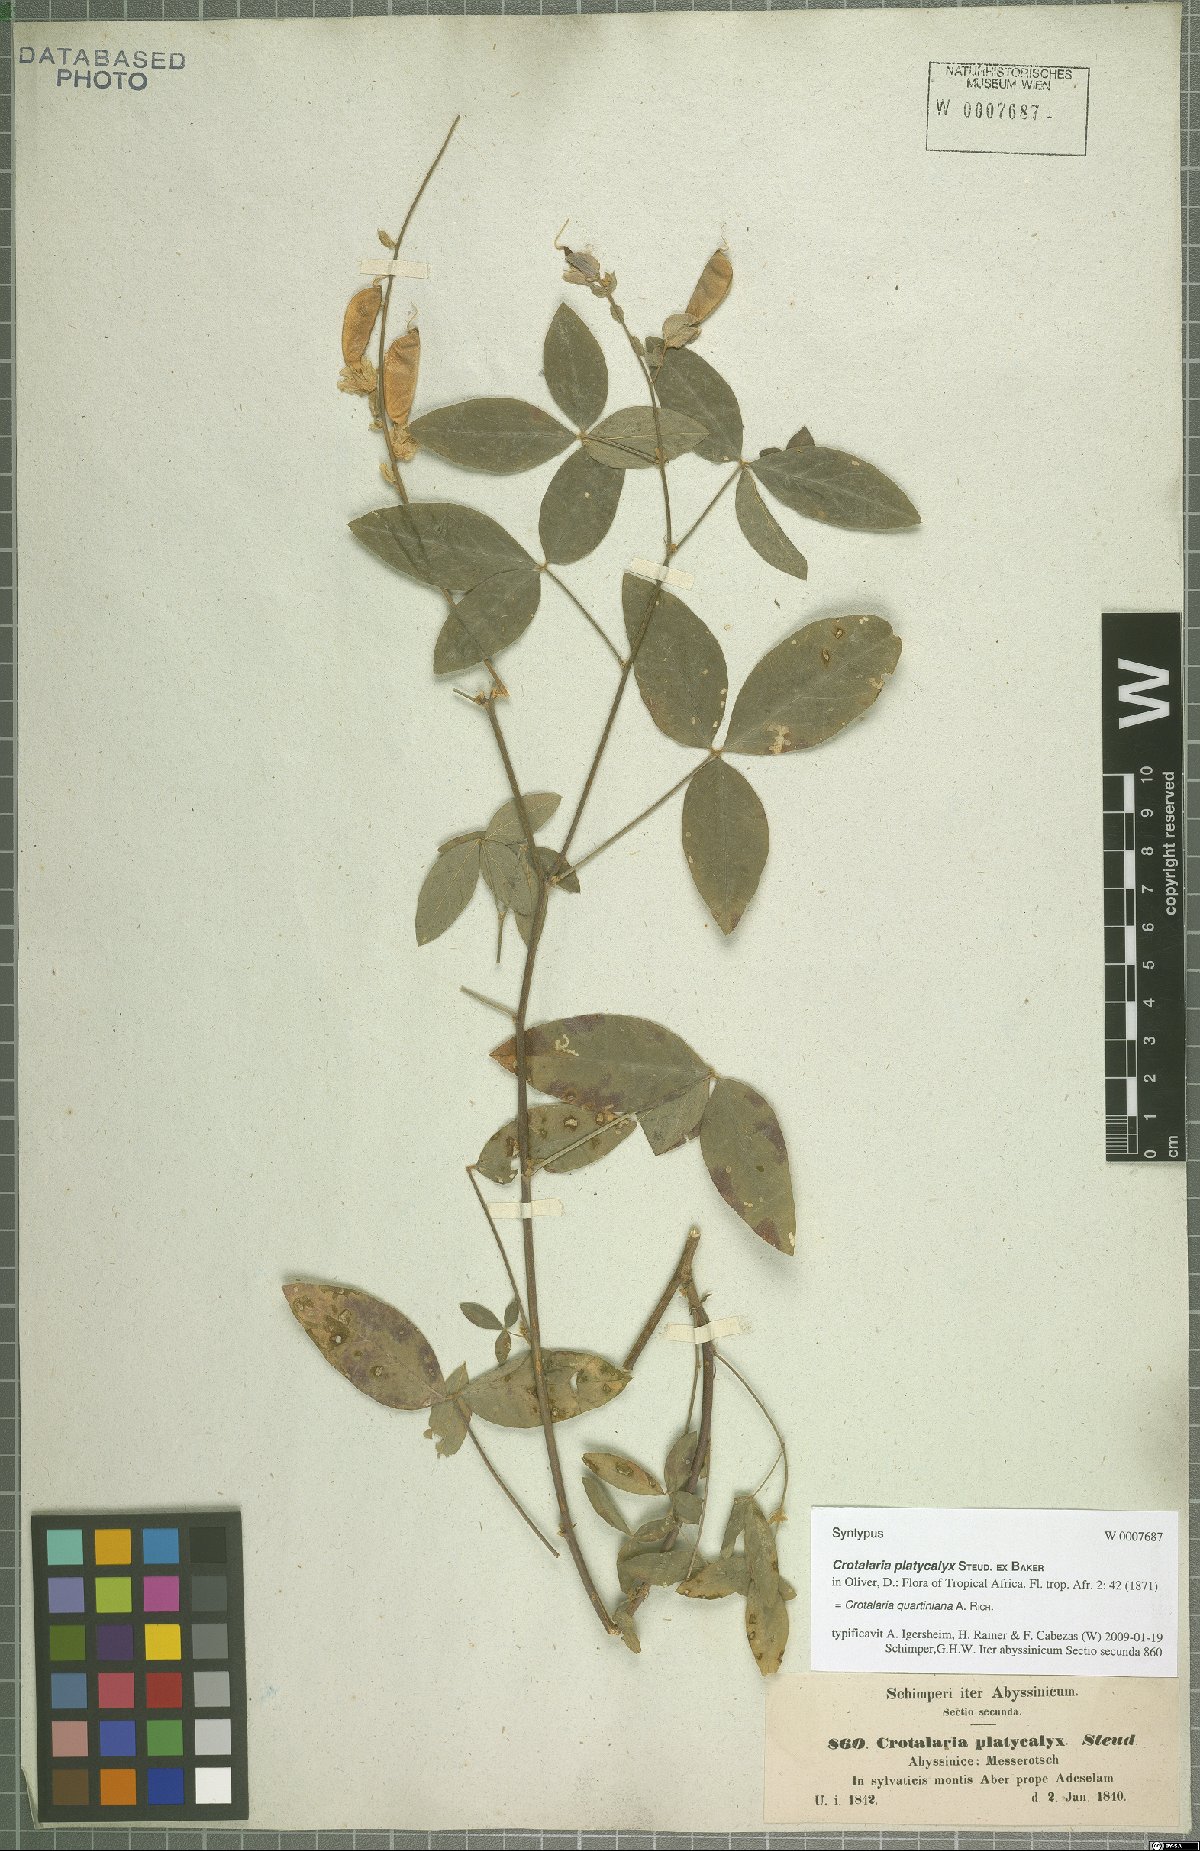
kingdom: Plantae
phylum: Tracheophyta
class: Magnoliopsida
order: Fabales
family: Fabaceae
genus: Crotalaria
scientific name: Crotalaria quartiniana
